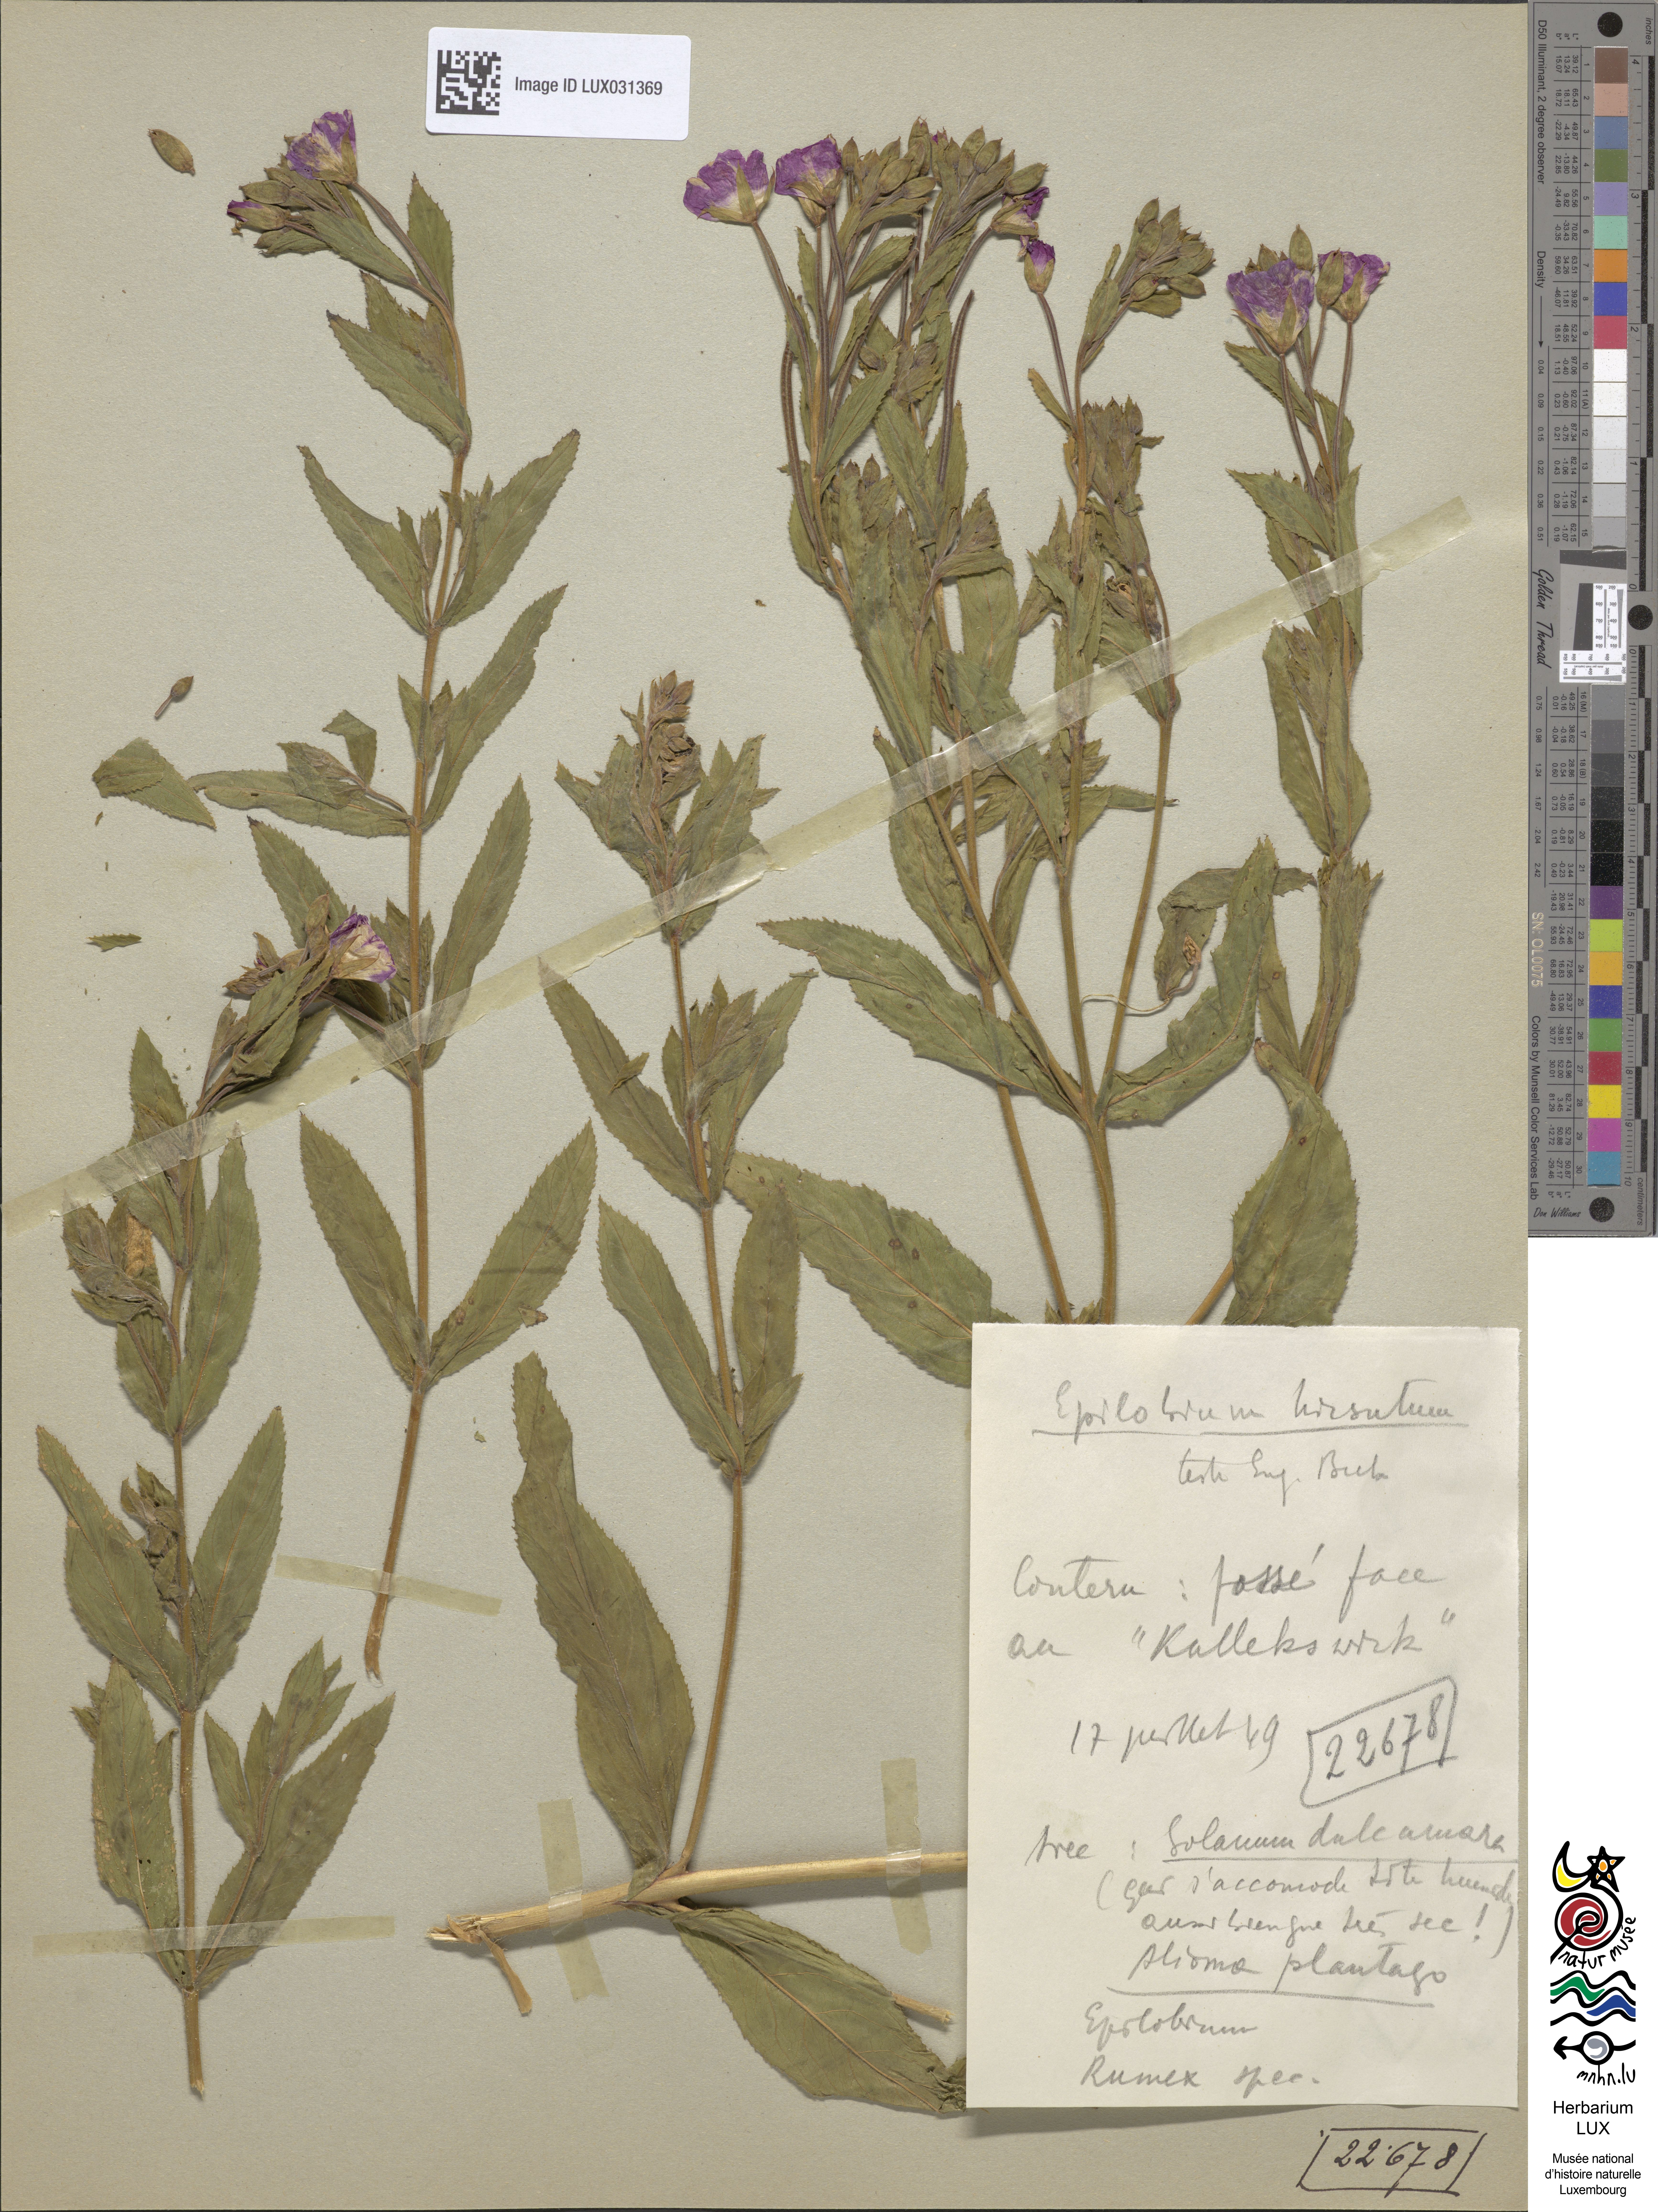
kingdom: Plantae
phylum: Tracheophyta
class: Magnoliopsida
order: Myrtales
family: Onagraceae
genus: Epilobium
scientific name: Epilobium hirsutum
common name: Great willowherb
